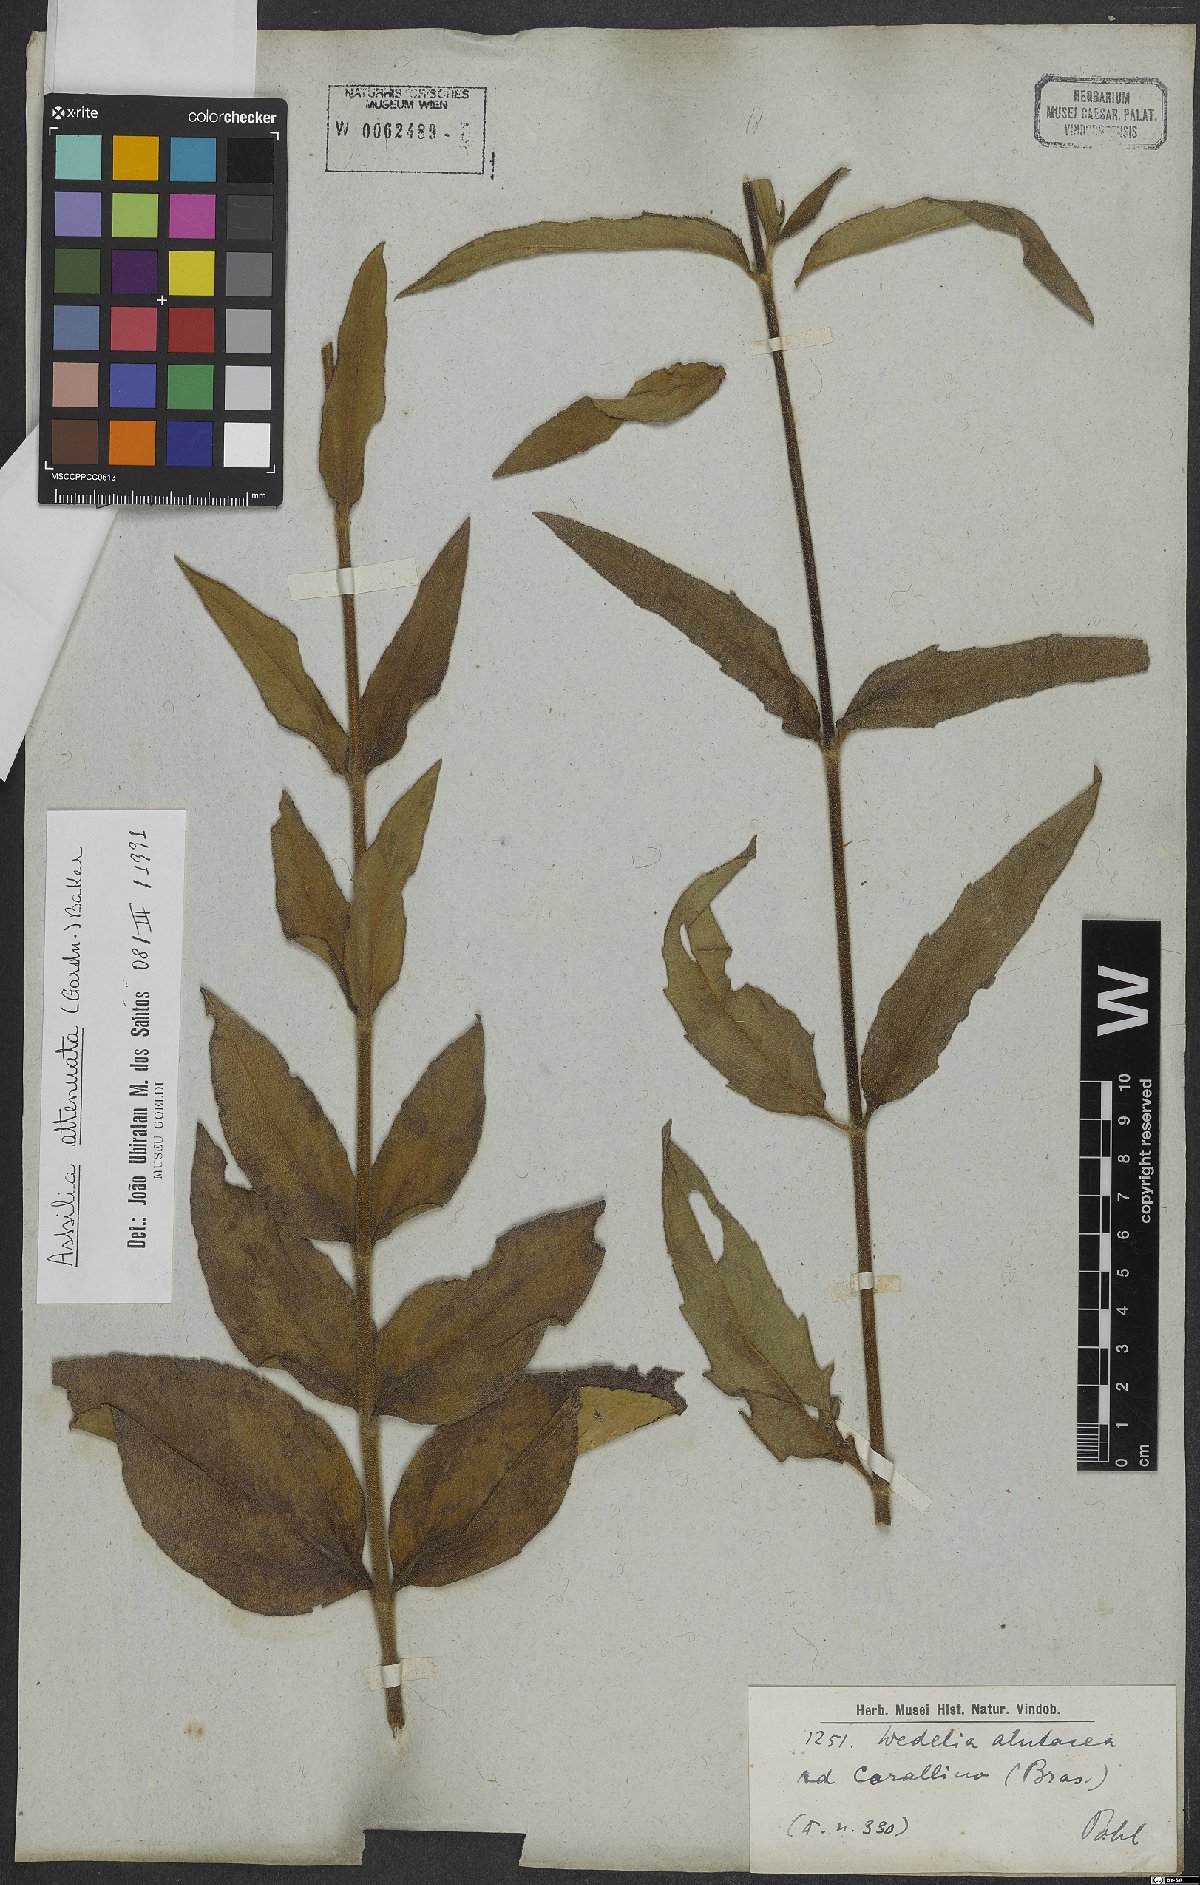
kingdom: Plantae
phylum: Tracheophyta
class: Magnoliopsida
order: Asterales
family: Asteraceae
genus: Wedelia
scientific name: Wedelia attenuata
